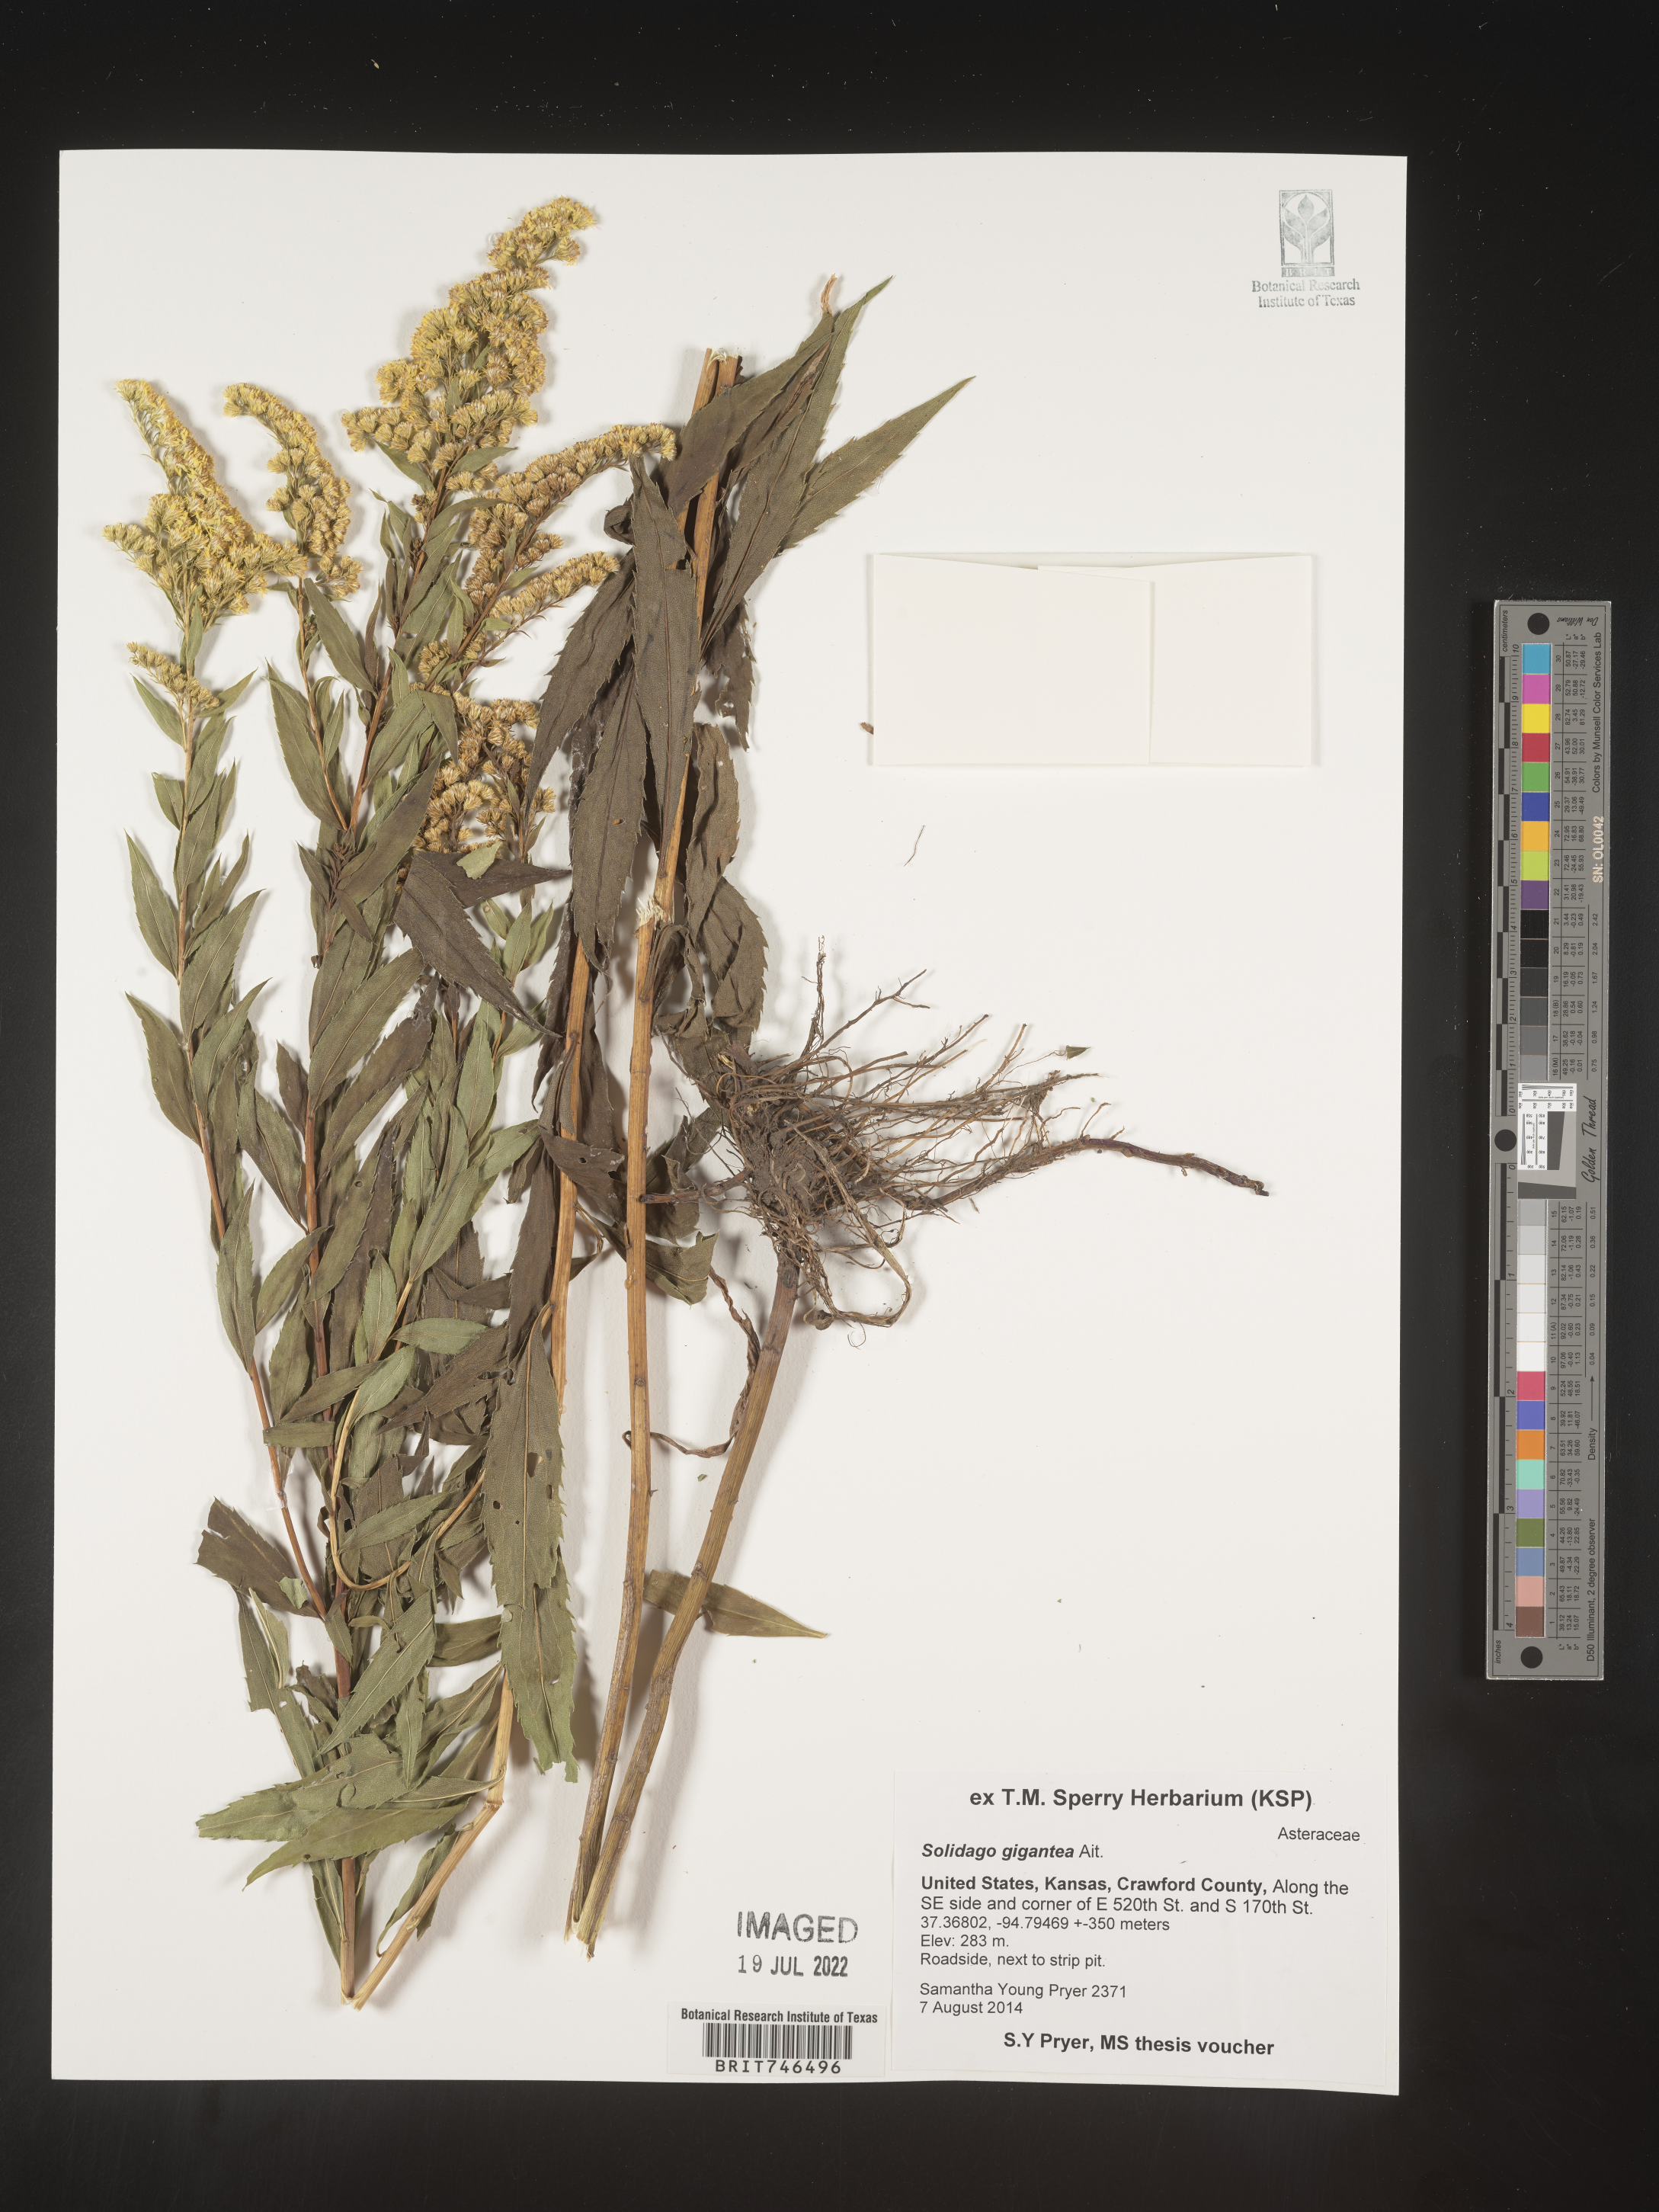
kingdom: Plantae
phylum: Tracheophyta
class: Magnoliopsida
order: Asterales
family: Asteraceae
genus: Solidago
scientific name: Solidago gigantea
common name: Giant goldenrod
